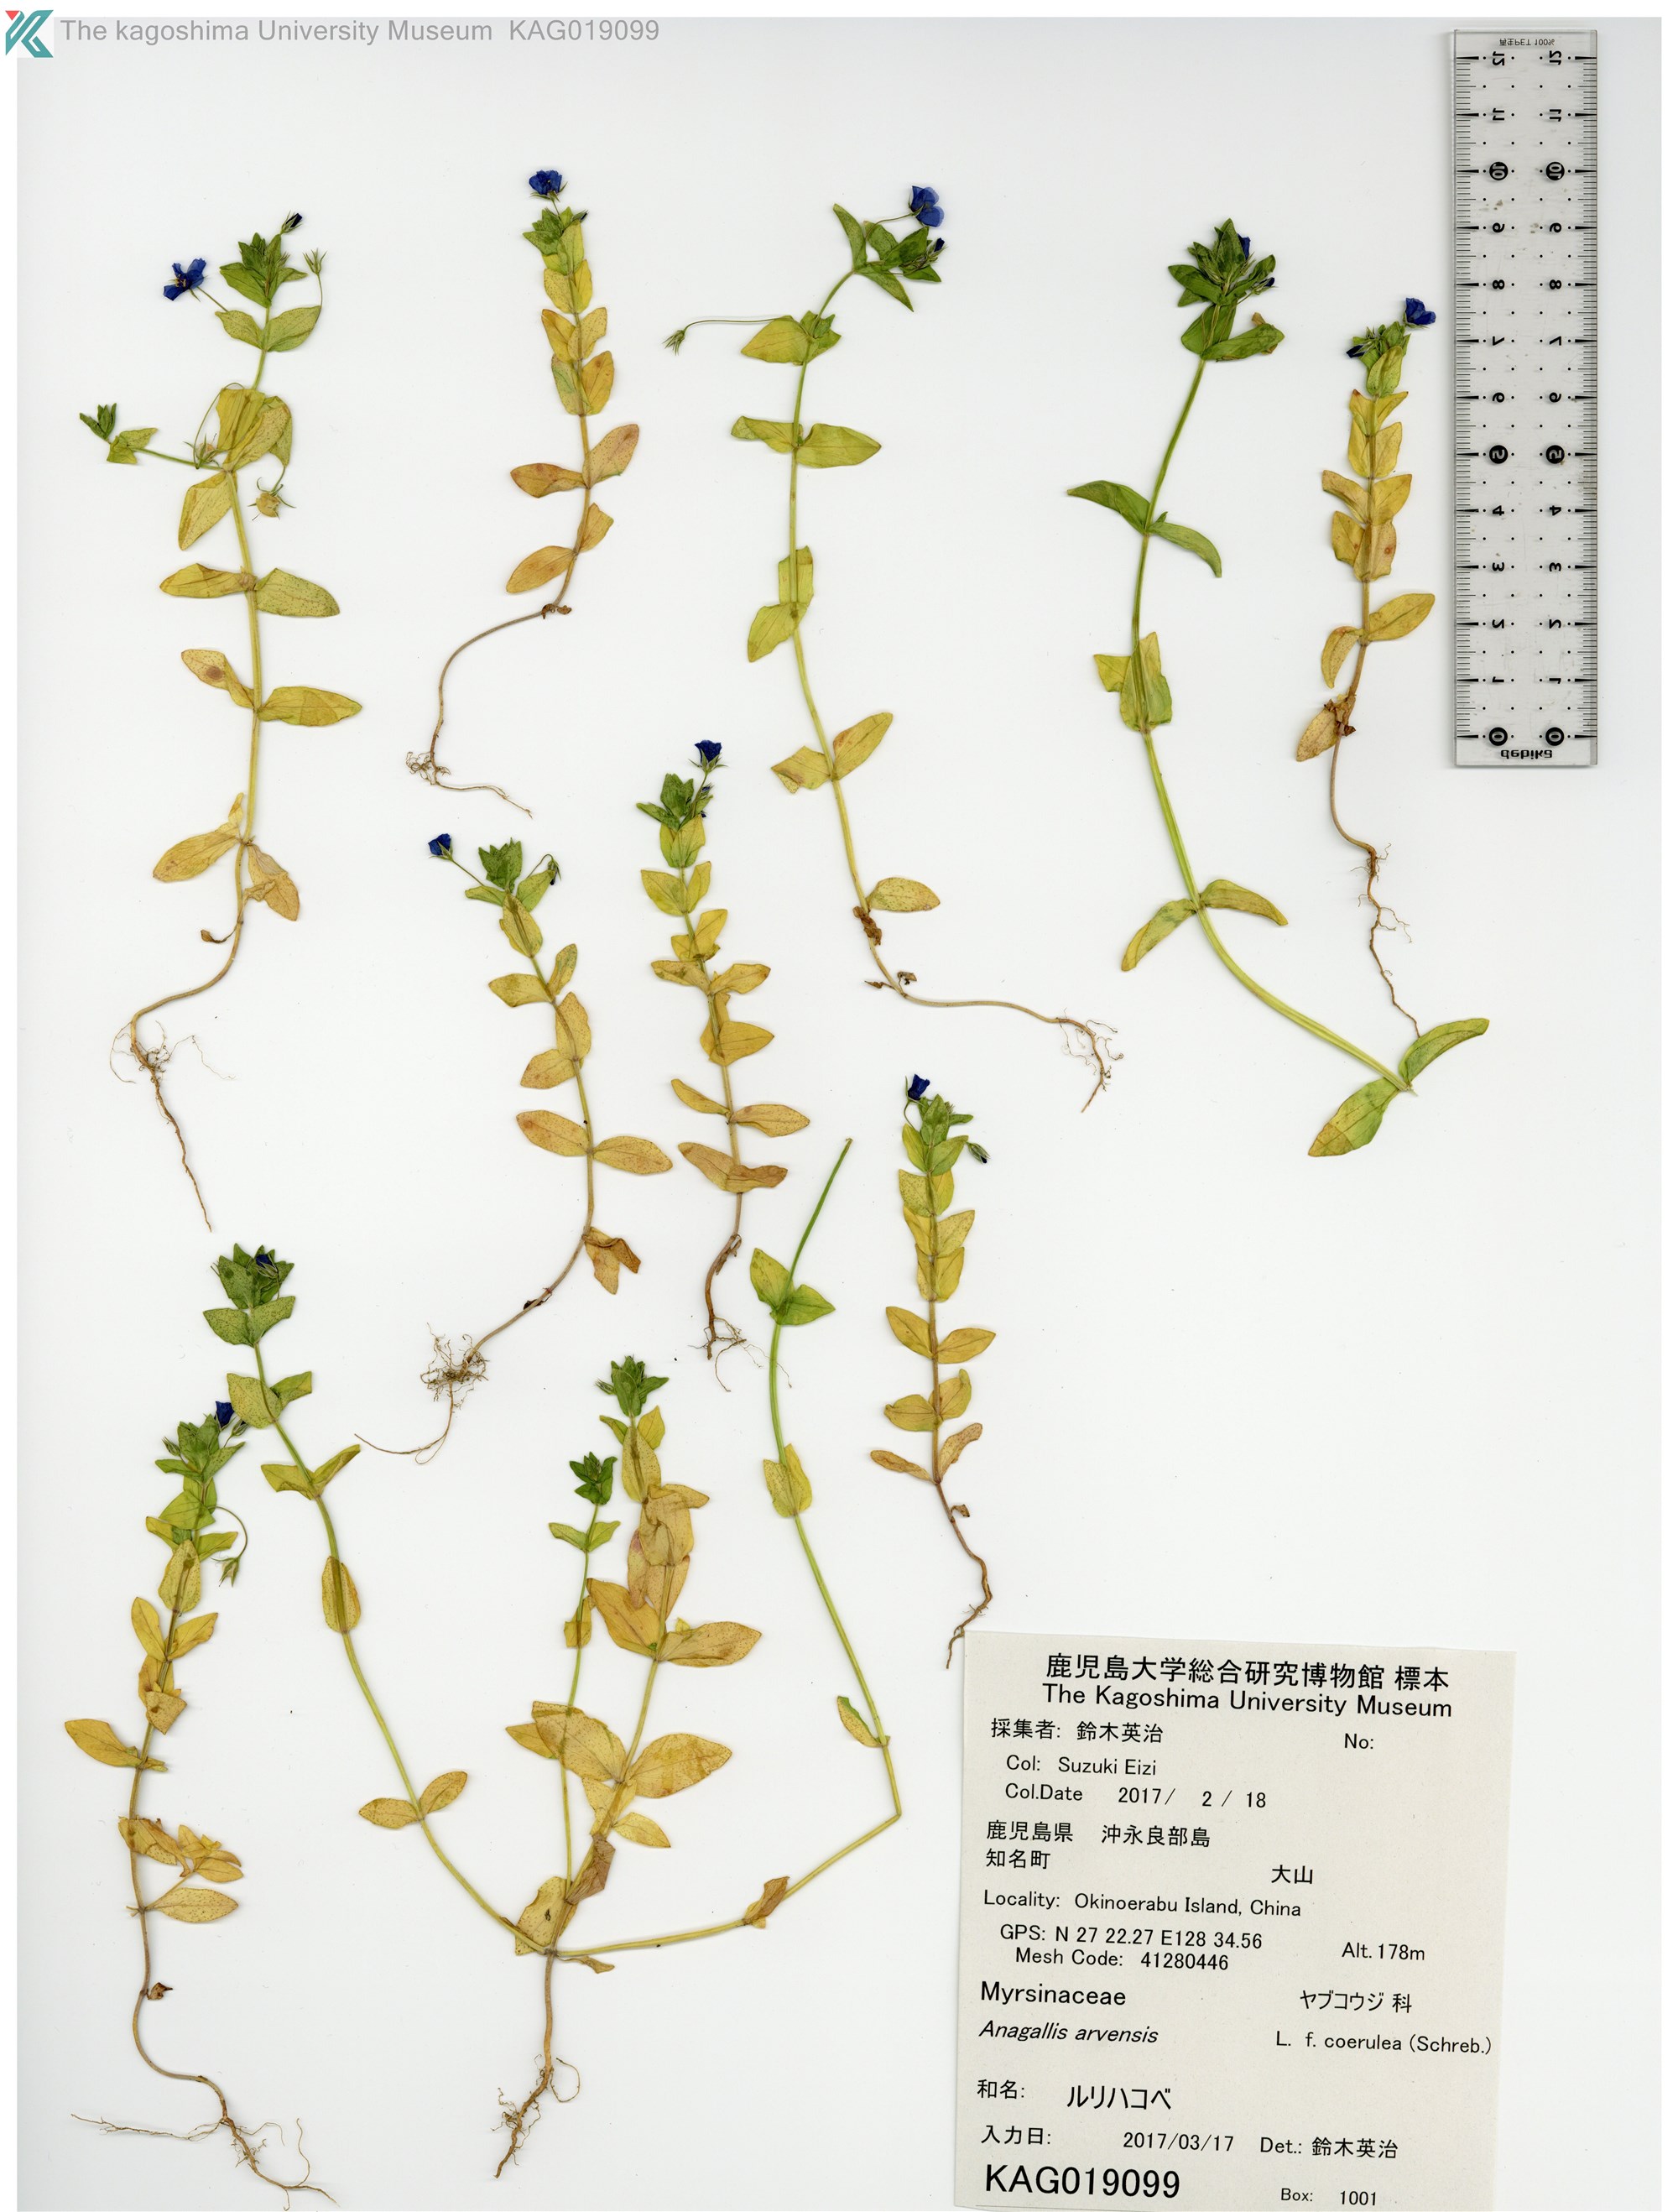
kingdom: Plantae
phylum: Tracheophyta
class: Magnoliopsida
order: Ericales
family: Primulaceae
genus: Lysimachia
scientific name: Lysimachia loeflingii
